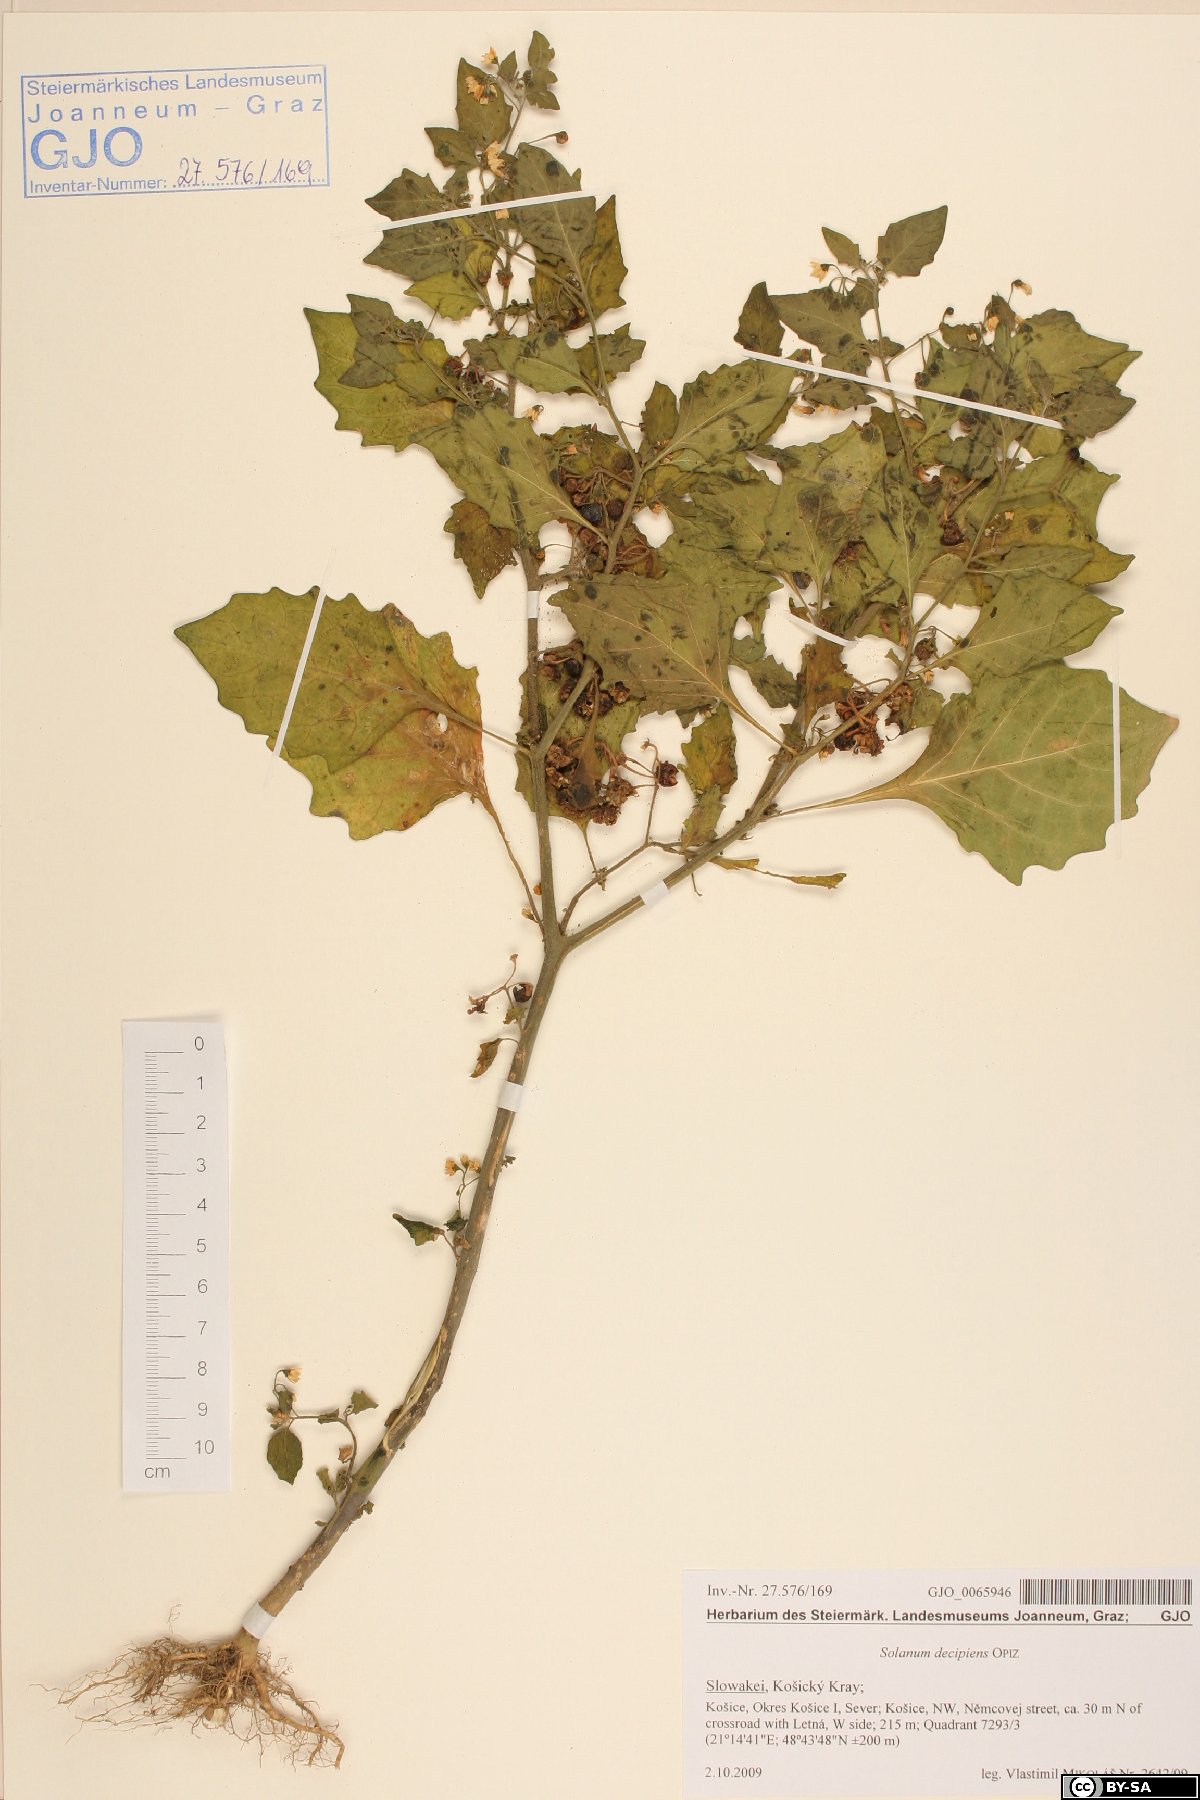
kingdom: Plantae
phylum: Tracheophyta
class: Magnoliopsida
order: Solanales
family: Solanaceae
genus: Solanum
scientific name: Solanum decipiens
